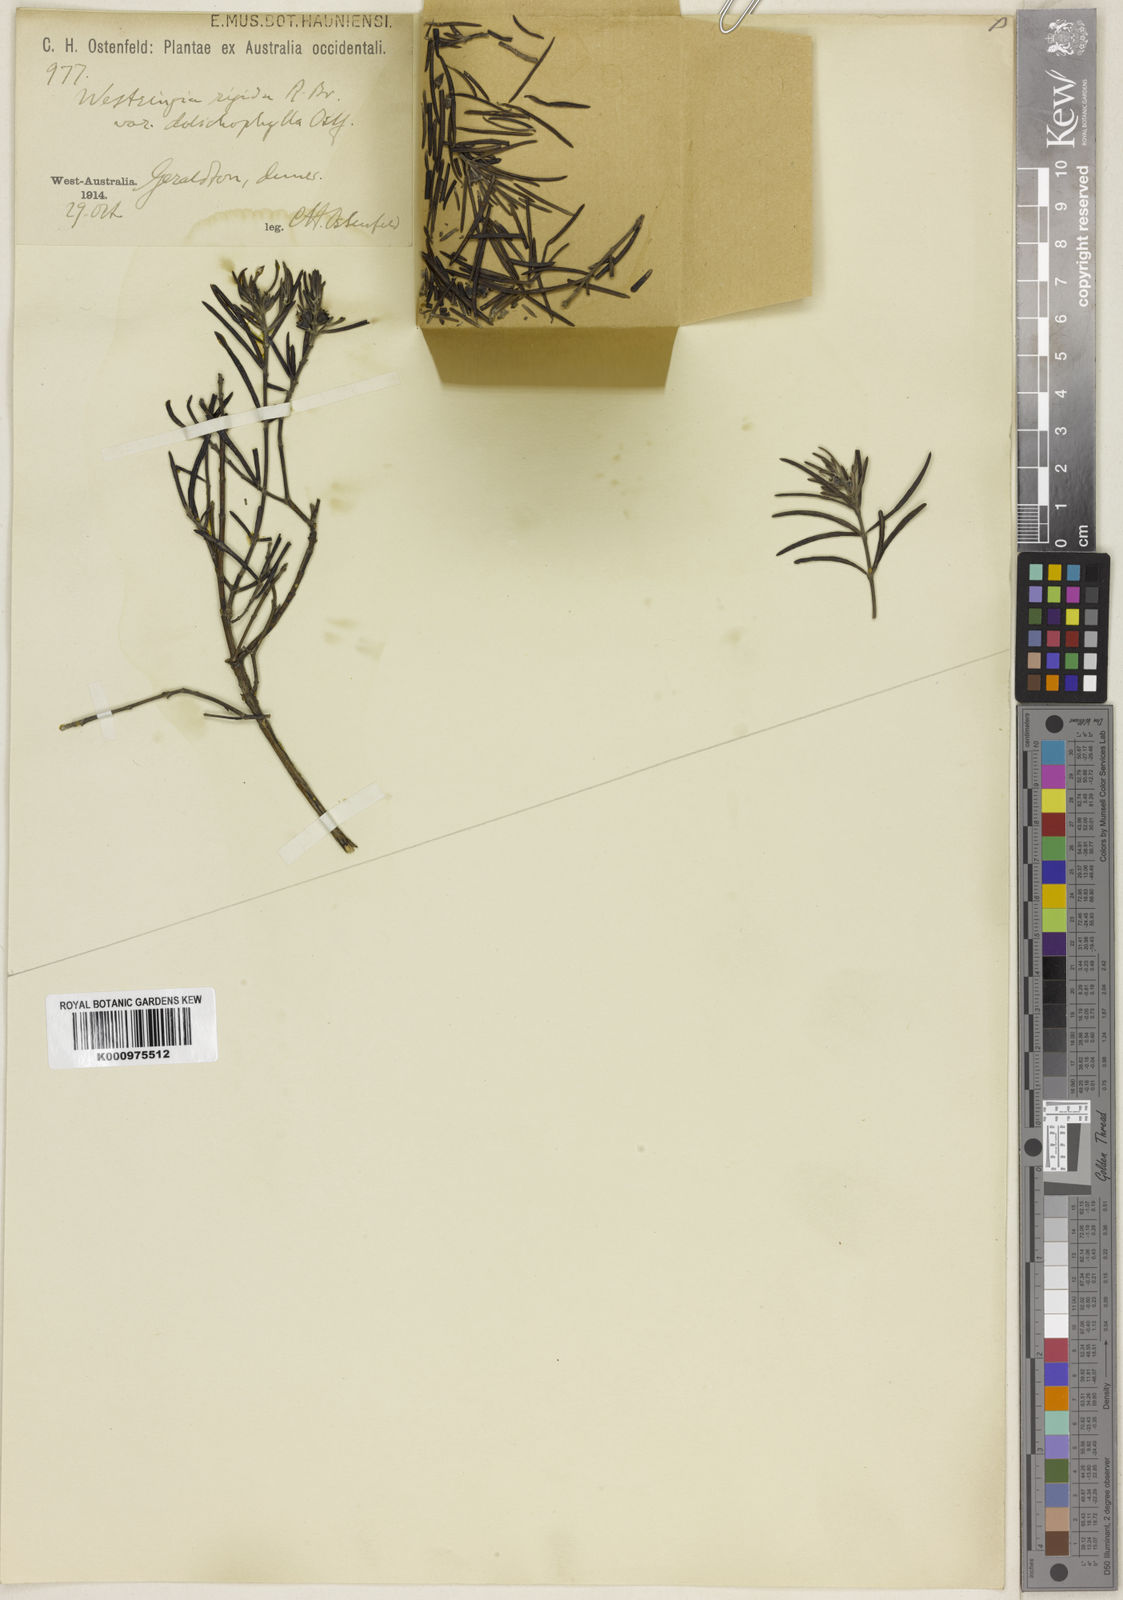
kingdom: Plantae
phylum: Tracheophyta
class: Magnoliopsida
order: Lamiales
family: Lamiaceae
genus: Westringia
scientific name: Westringia rigida
